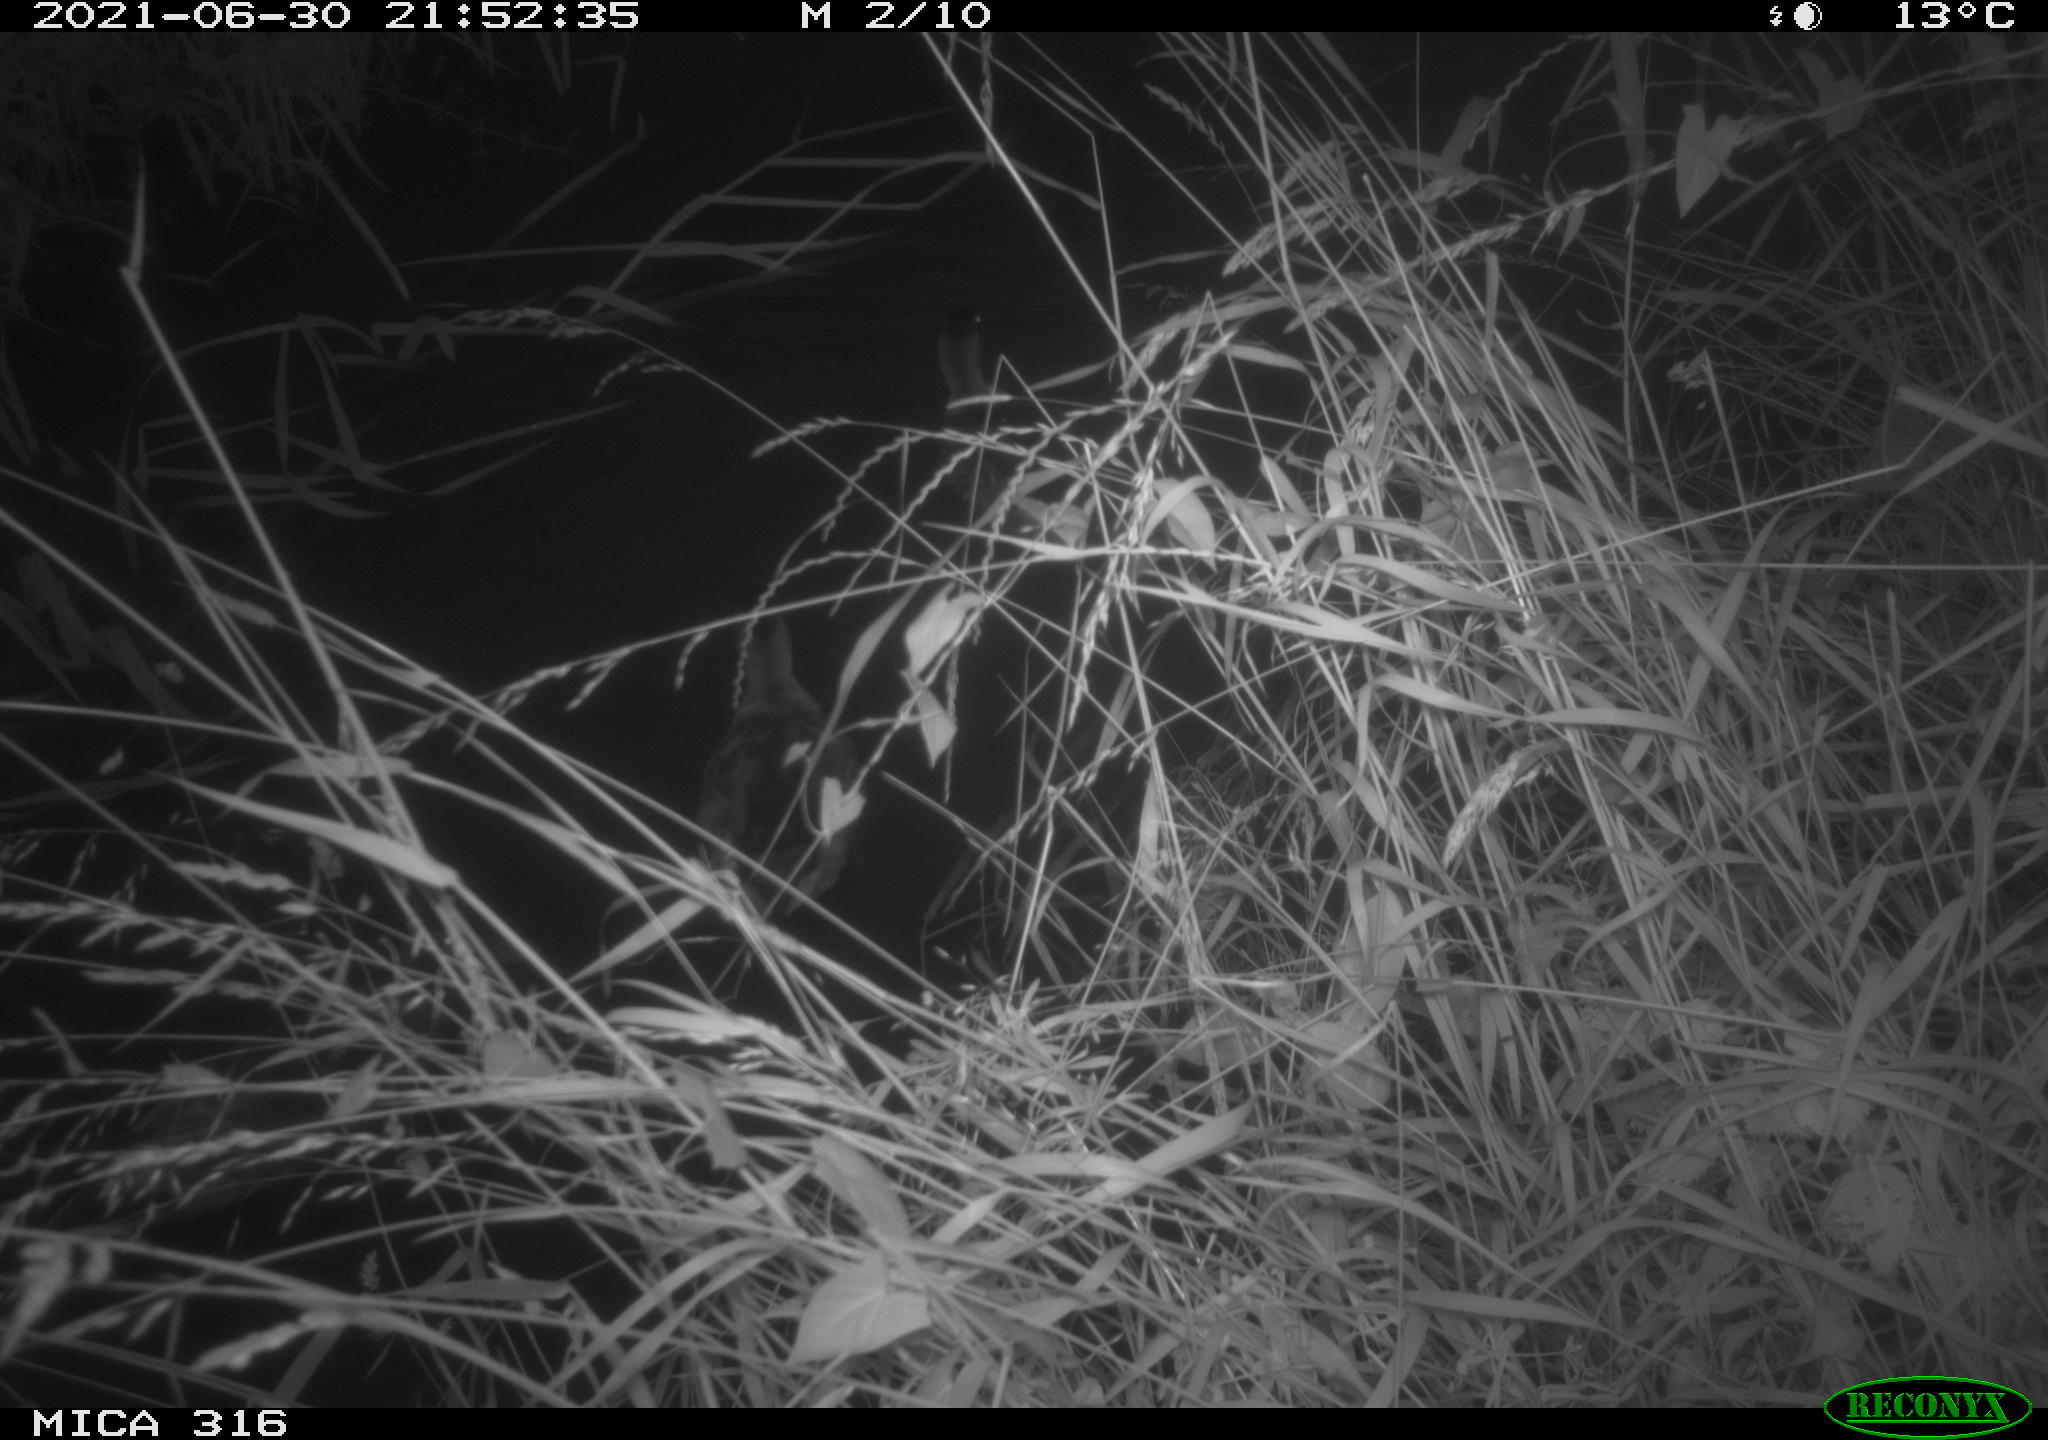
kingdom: Animalia
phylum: Chordata
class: Aves
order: Anseriformes
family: Anatidae
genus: Anas
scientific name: Anas platyrhynchos
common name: Mallard
